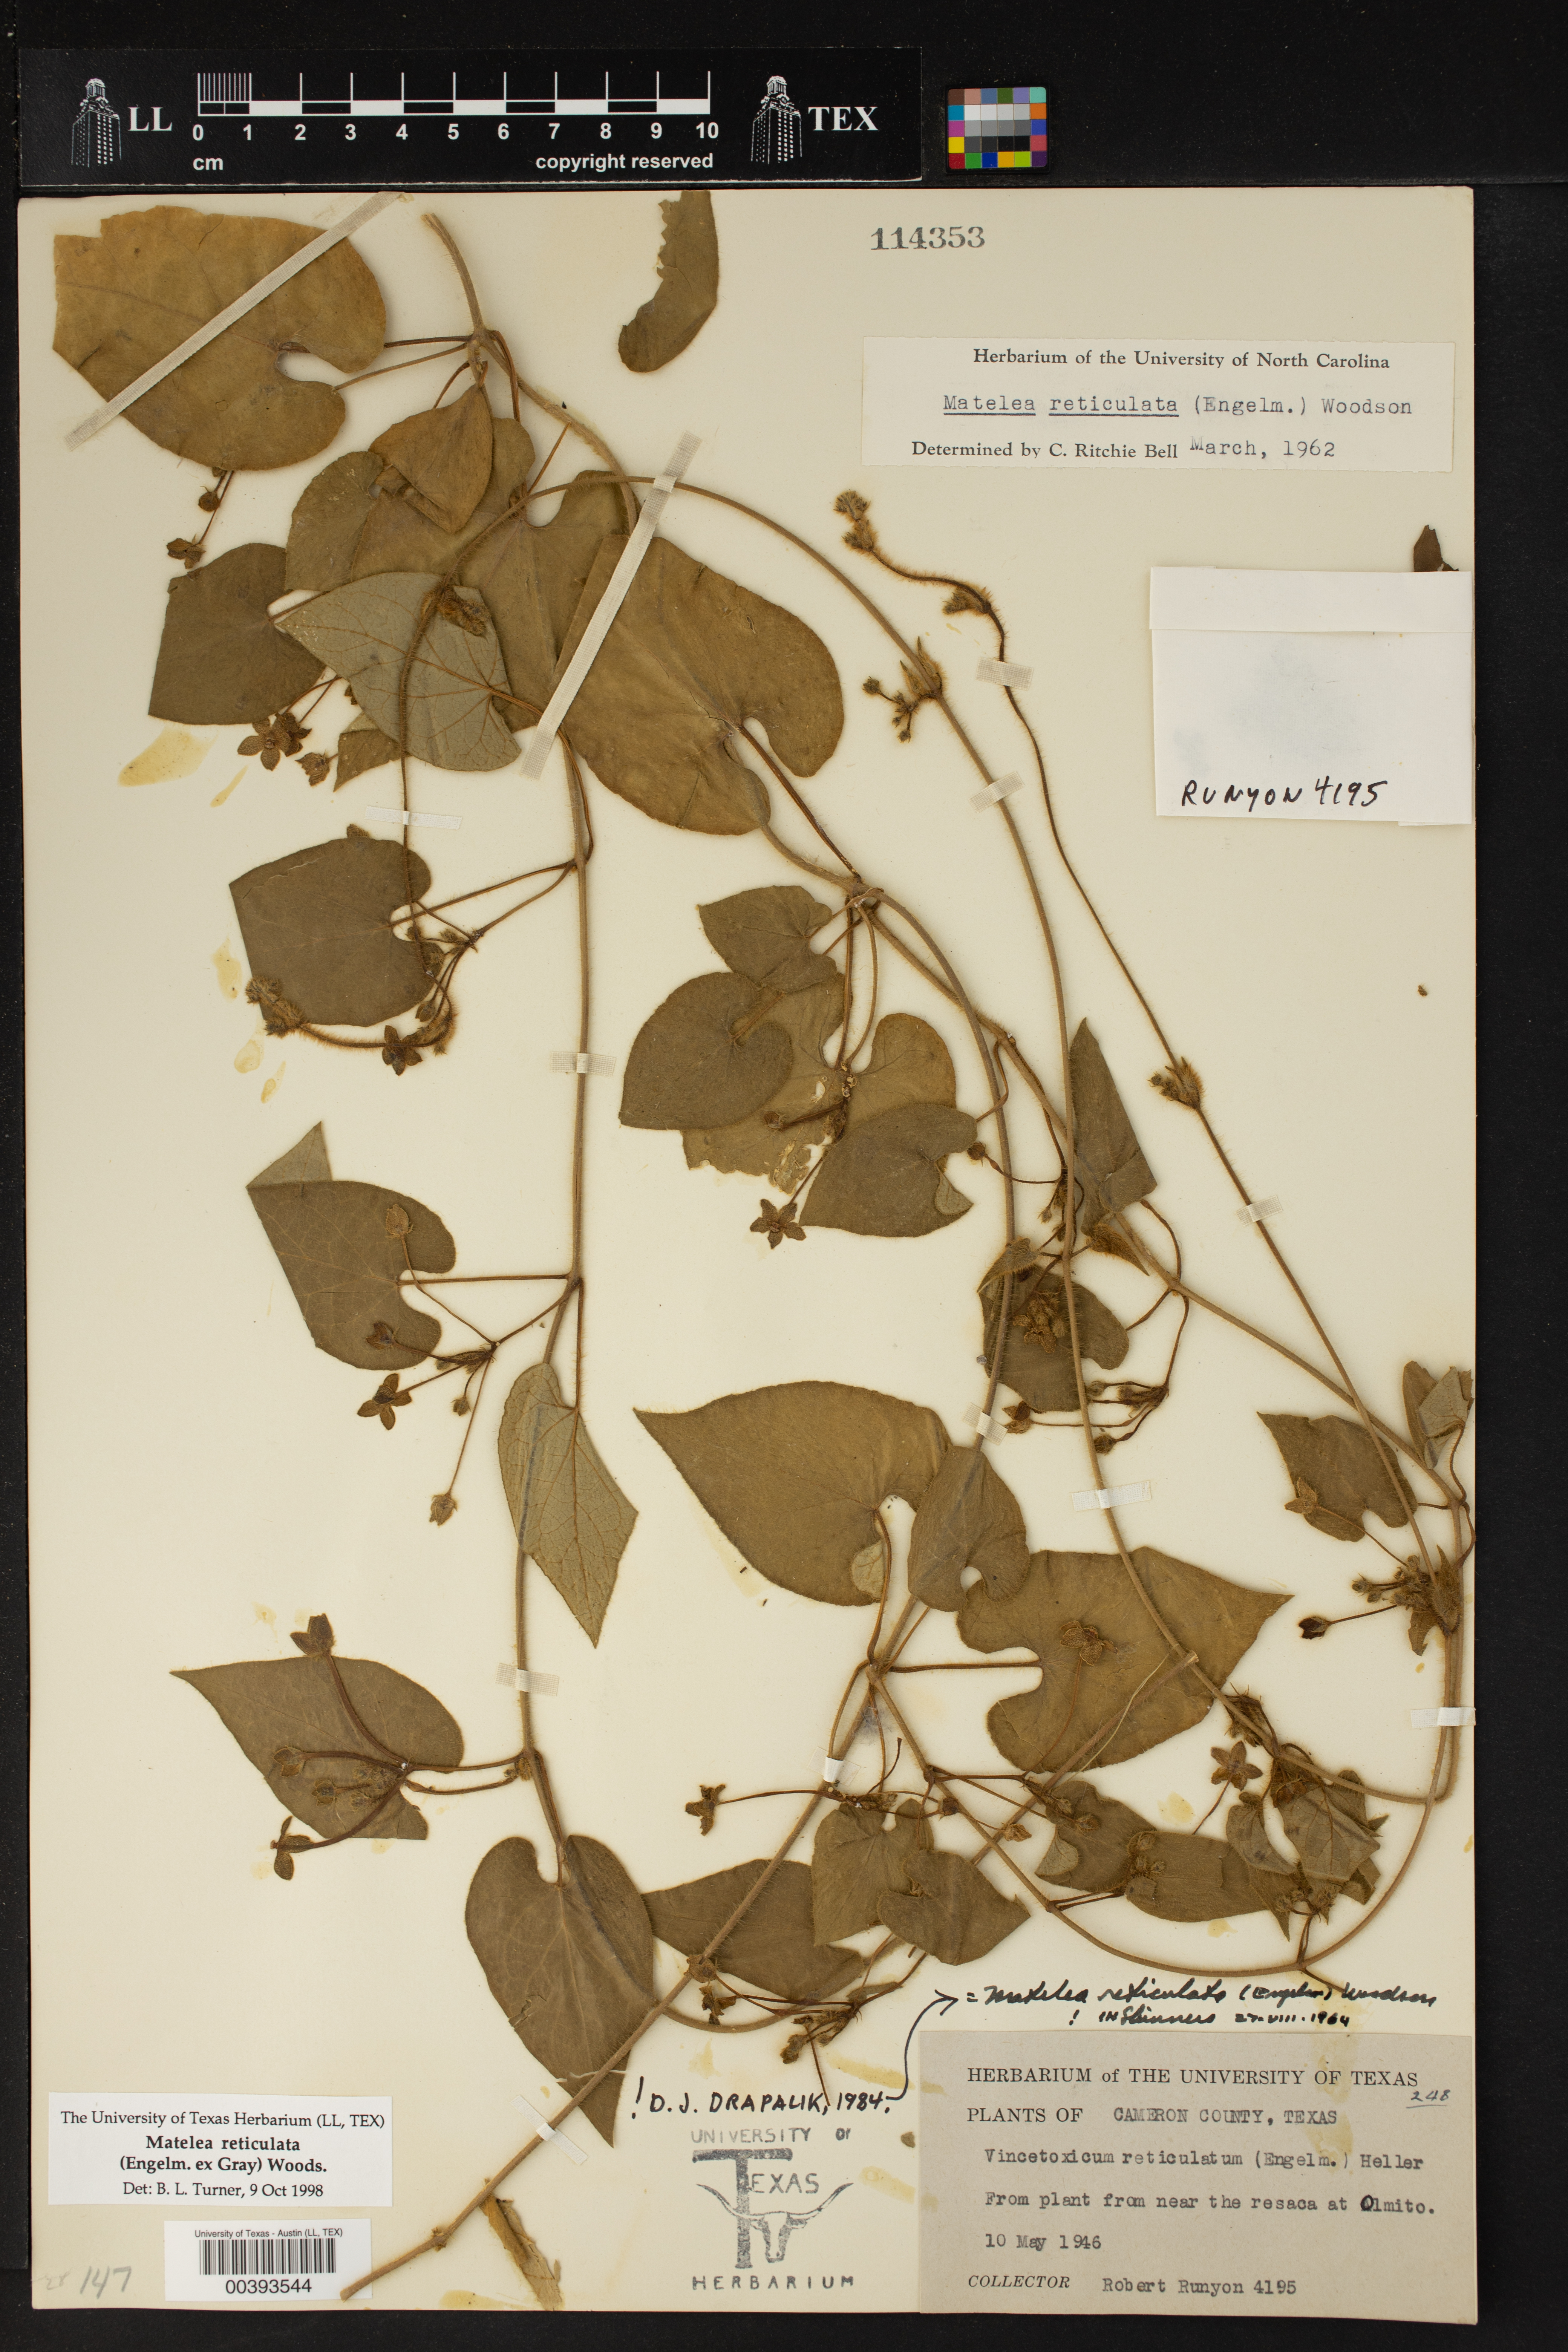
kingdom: Plantae
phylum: Tracheophyta
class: Magnoliopsida
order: Gentianales
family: Apocynaceae
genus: Dictyanthus
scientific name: Dictyanthus reticulatus
